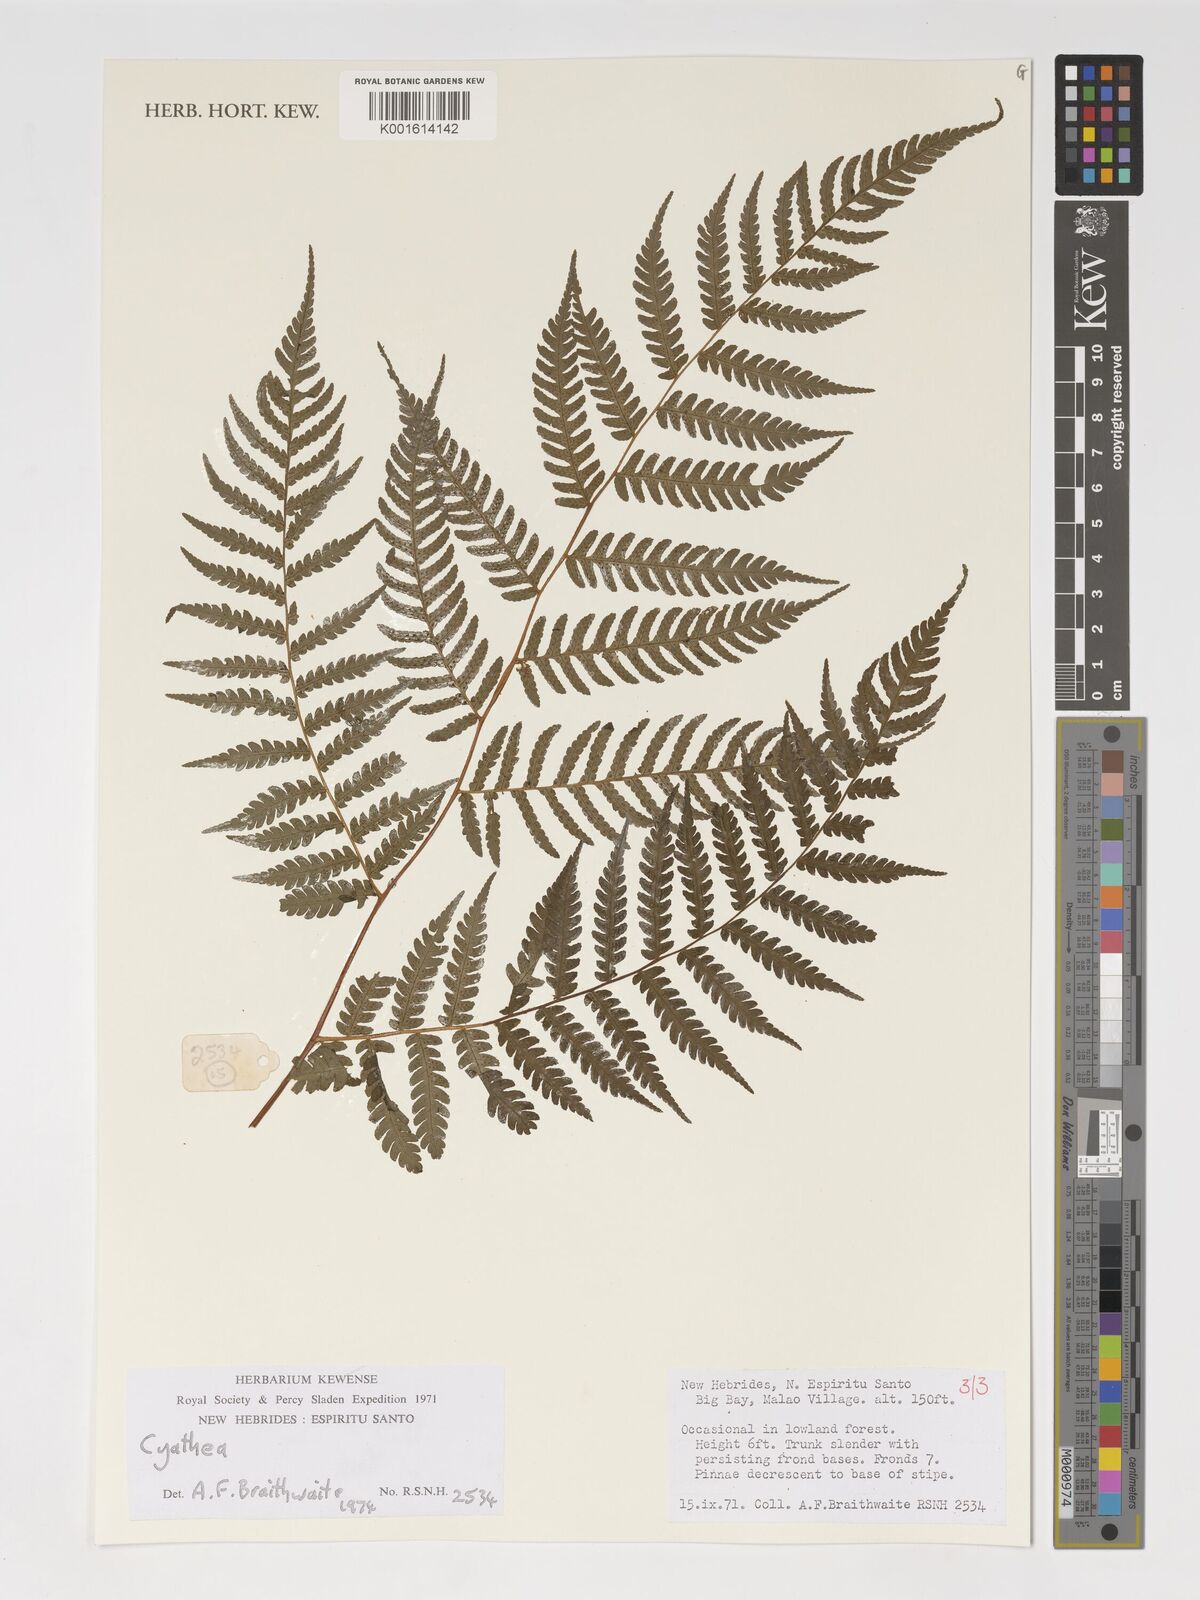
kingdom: Plantae
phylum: Tracheophyta
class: Polypodiopsida
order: Cyatheales
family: Cyatheaceae
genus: Cyathea
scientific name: Cyathea
